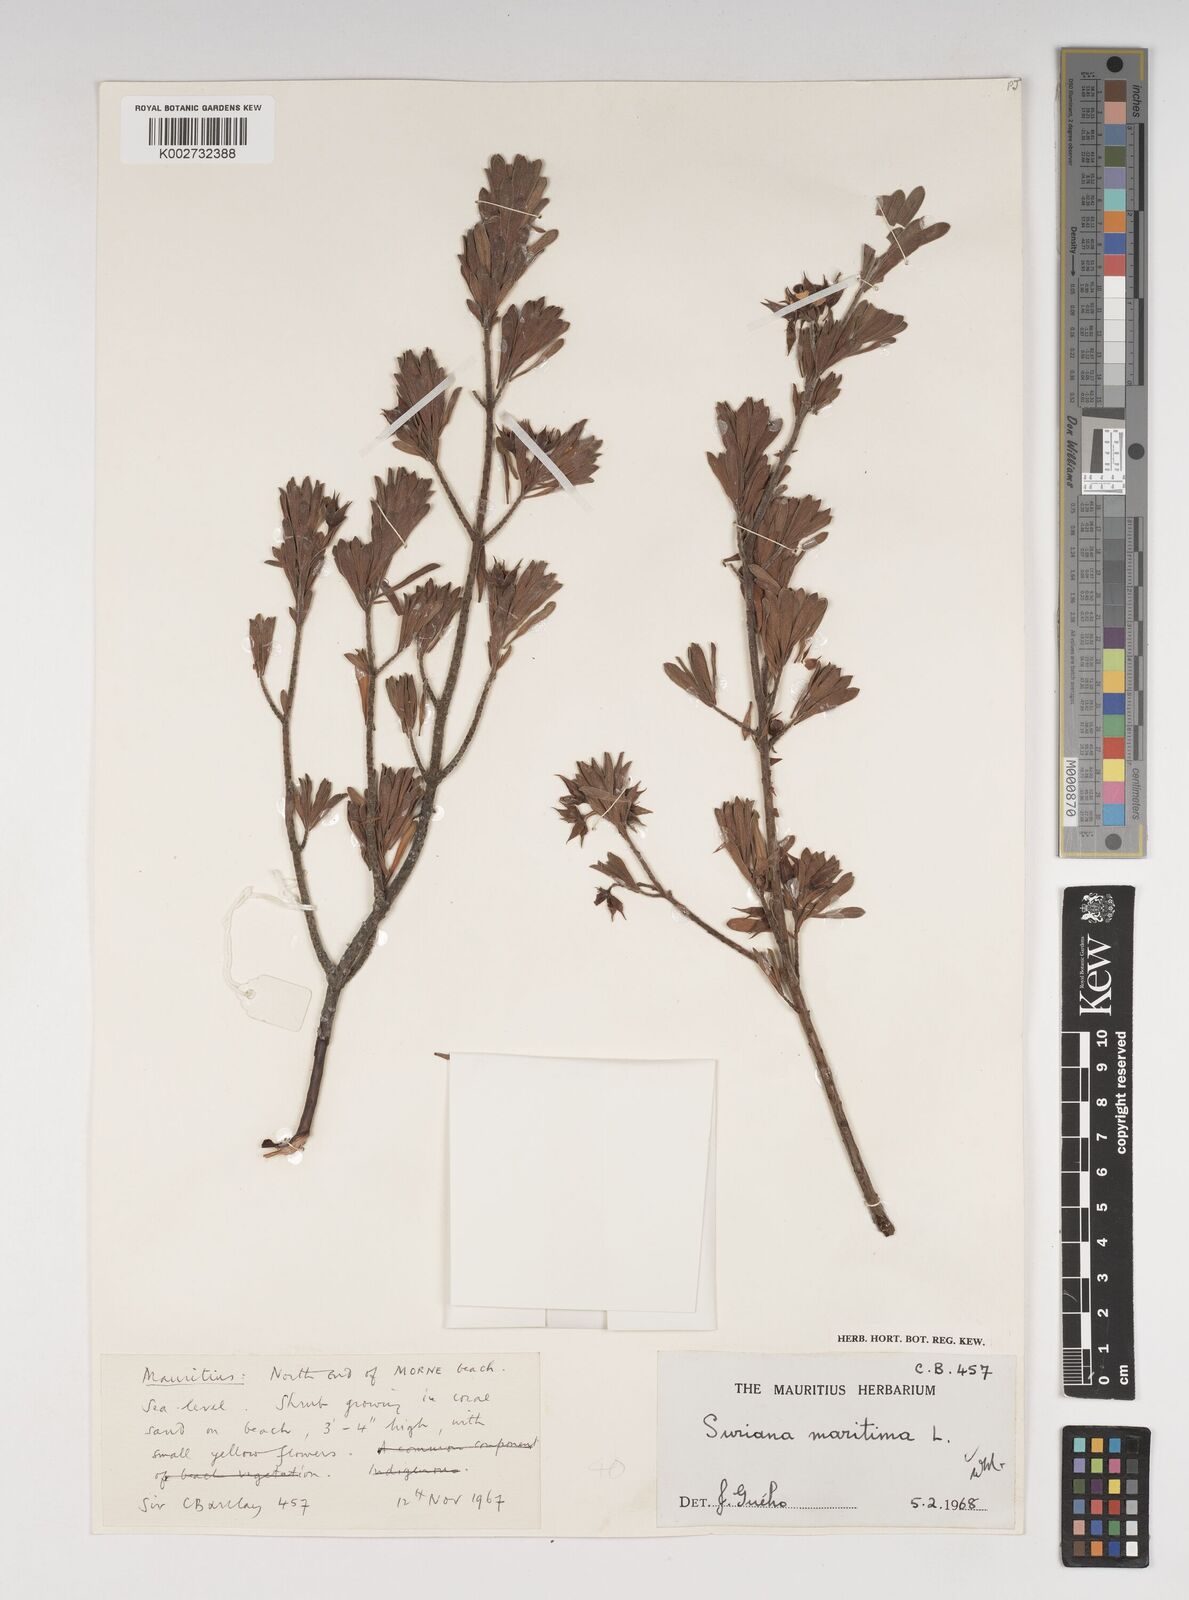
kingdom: Plantae
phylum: Tracheophyta
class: Magnoliopsida
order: Fabales
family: Surianaceae
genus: Suriana
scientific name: Suriana maritima
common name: Bay-cedar
